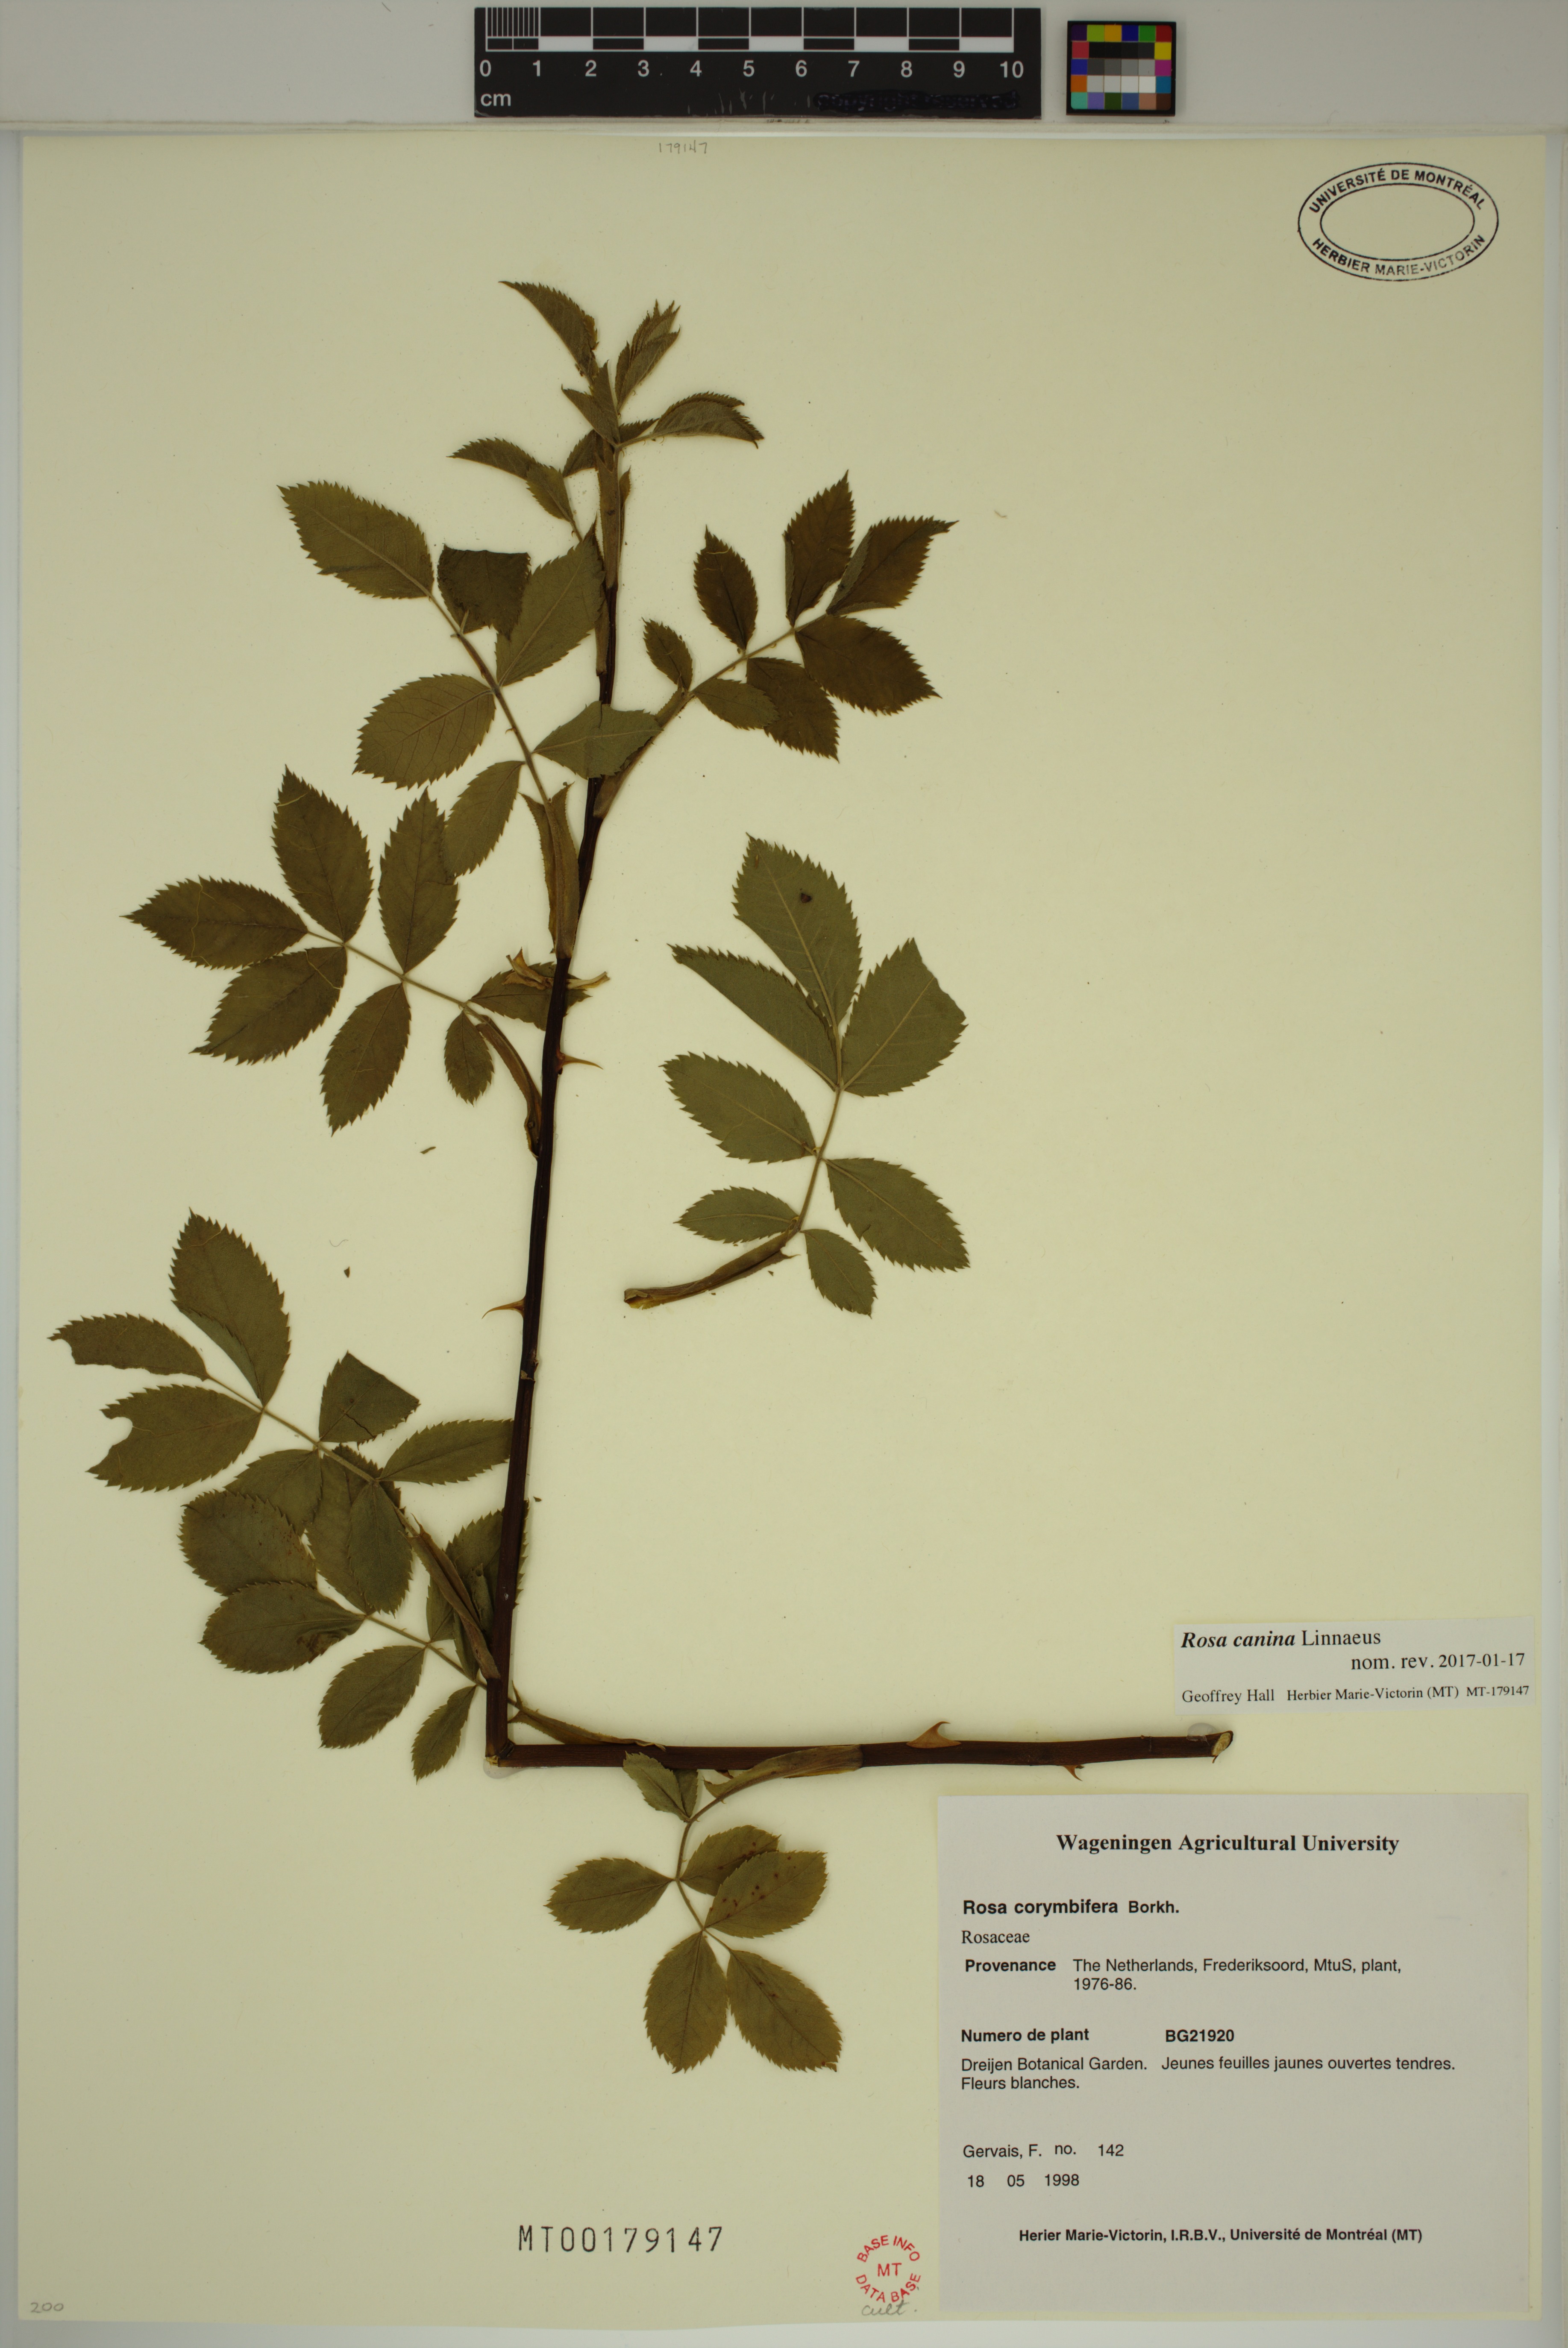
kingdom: Plantae
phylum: Tracheophyta
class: Magnoliopsida
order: Rosales
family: Rosaceae
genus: Rosa
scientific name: Rosa canina
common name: Dog rose
